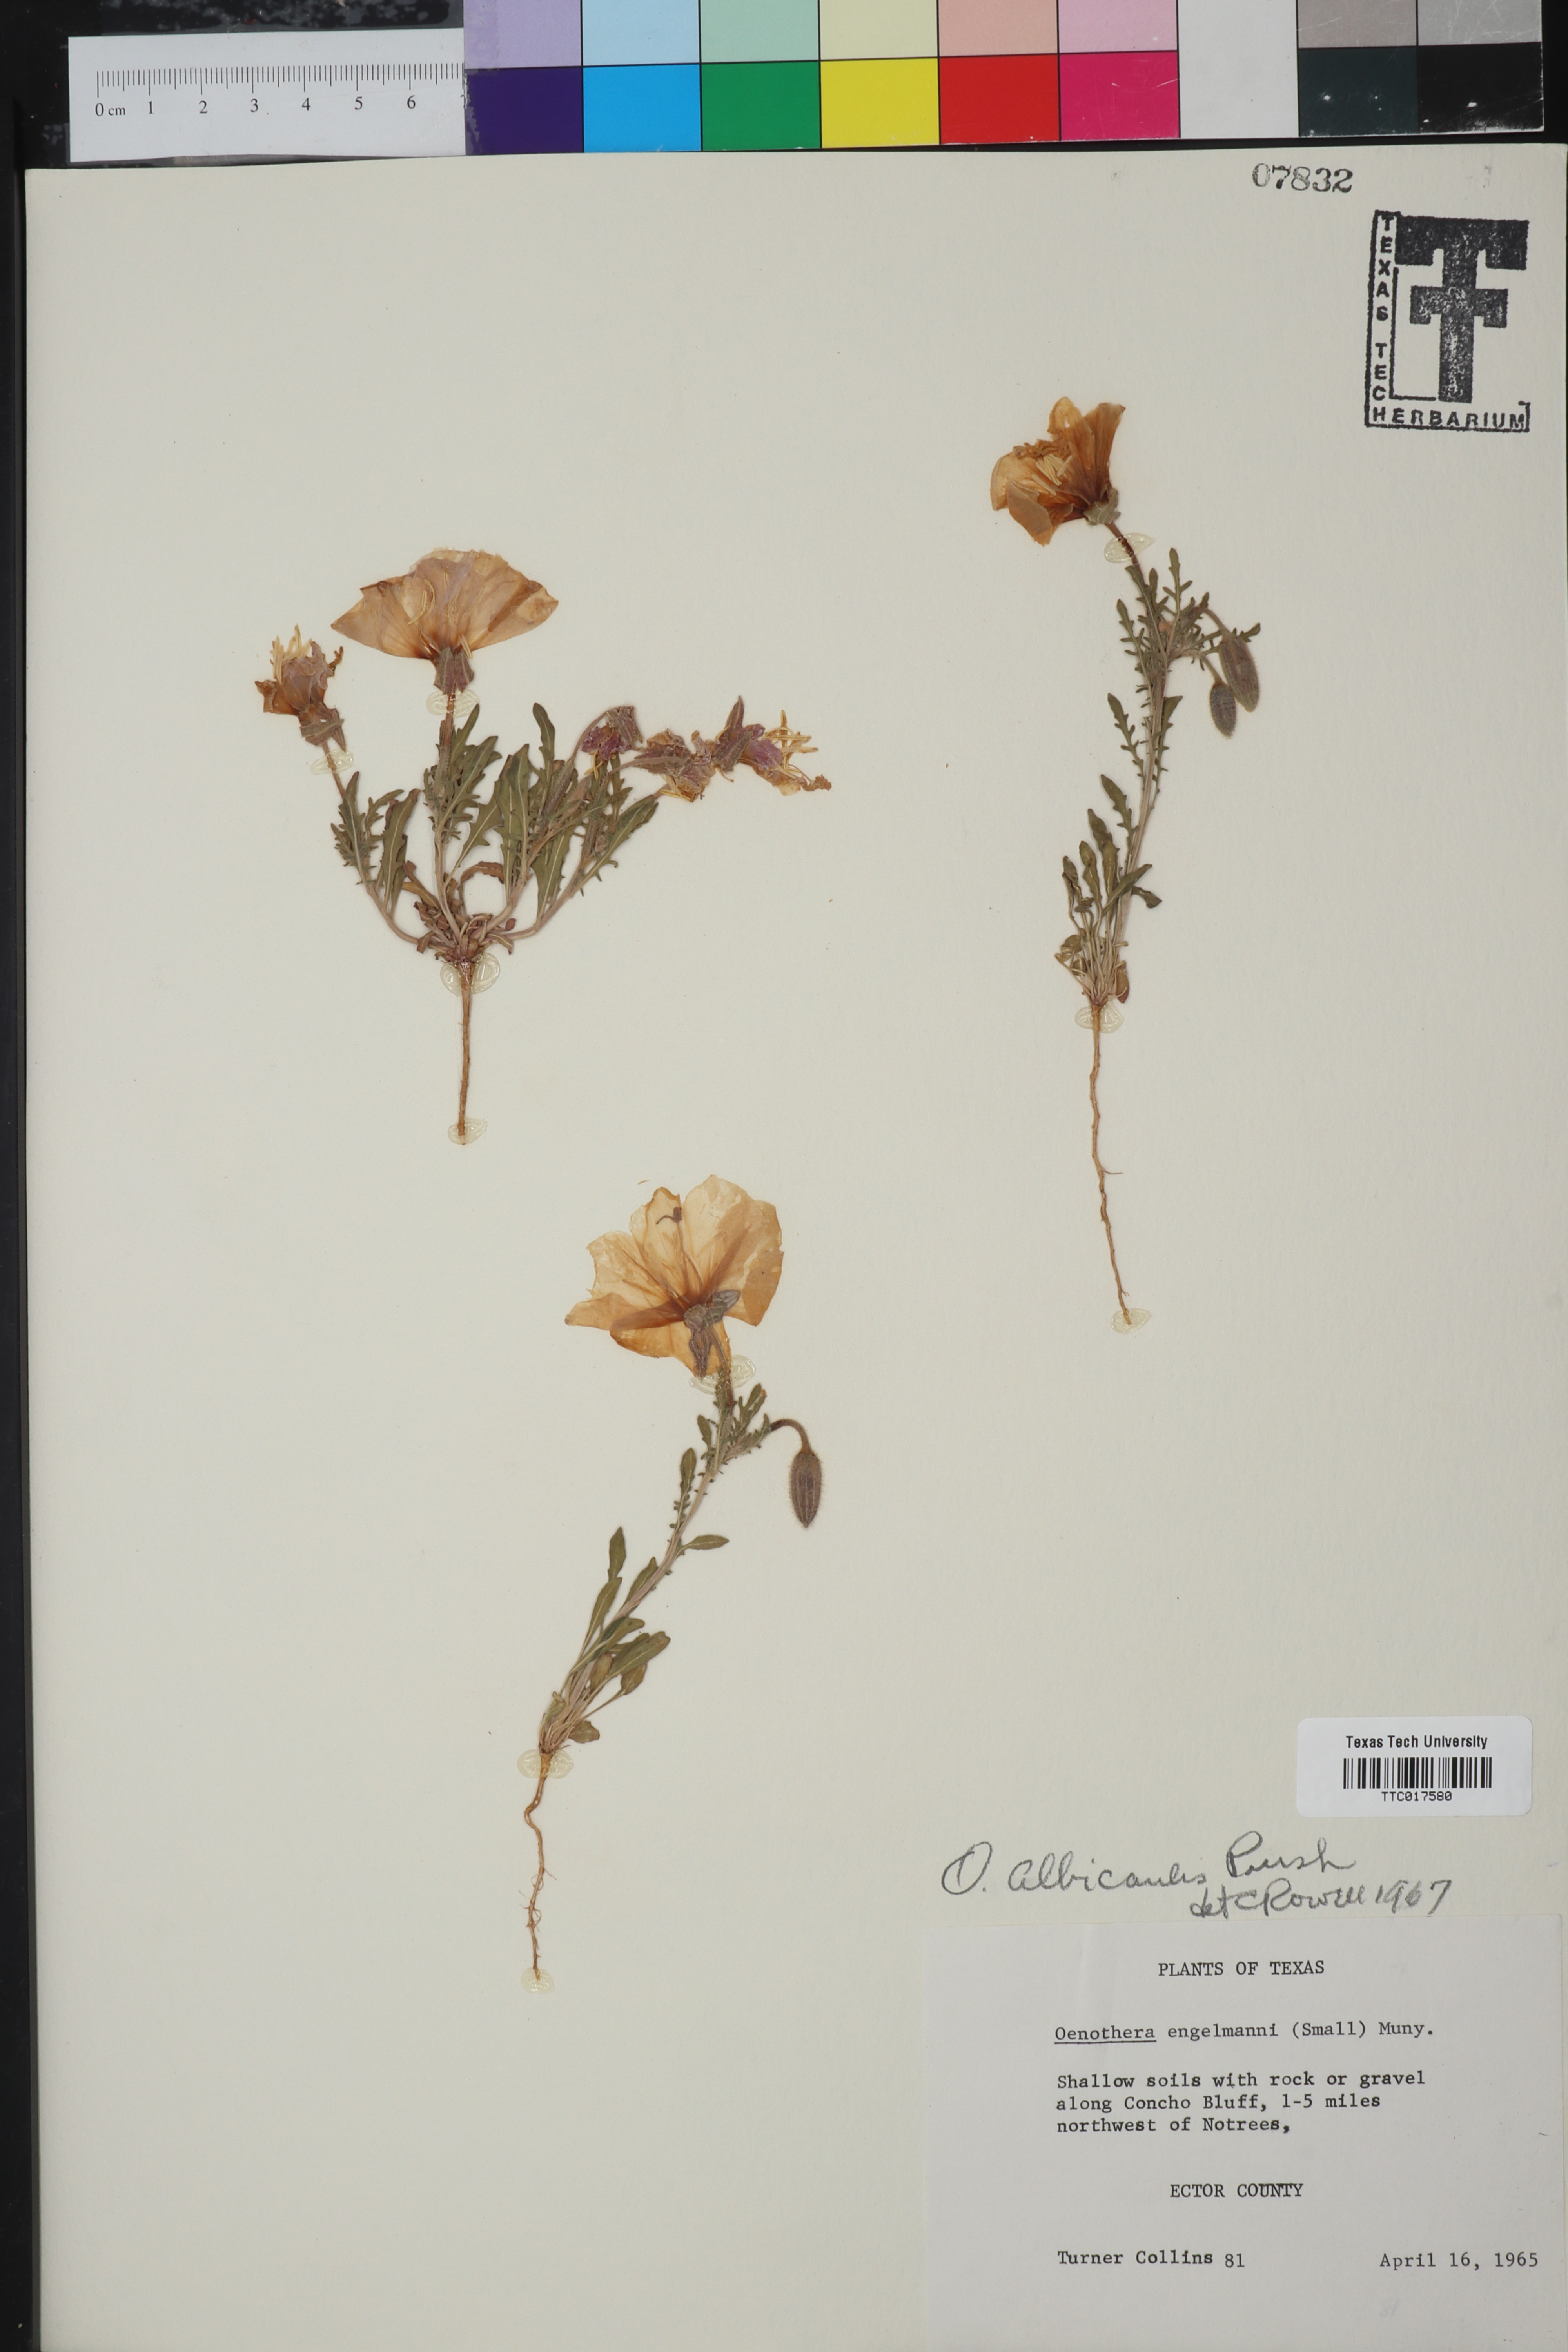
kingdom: Plantae
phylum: Tracheophyta
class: Magnoliopsida
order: Myrtales
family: Onagraceae
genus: Oenothera
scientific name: Oenothera albicaulis
